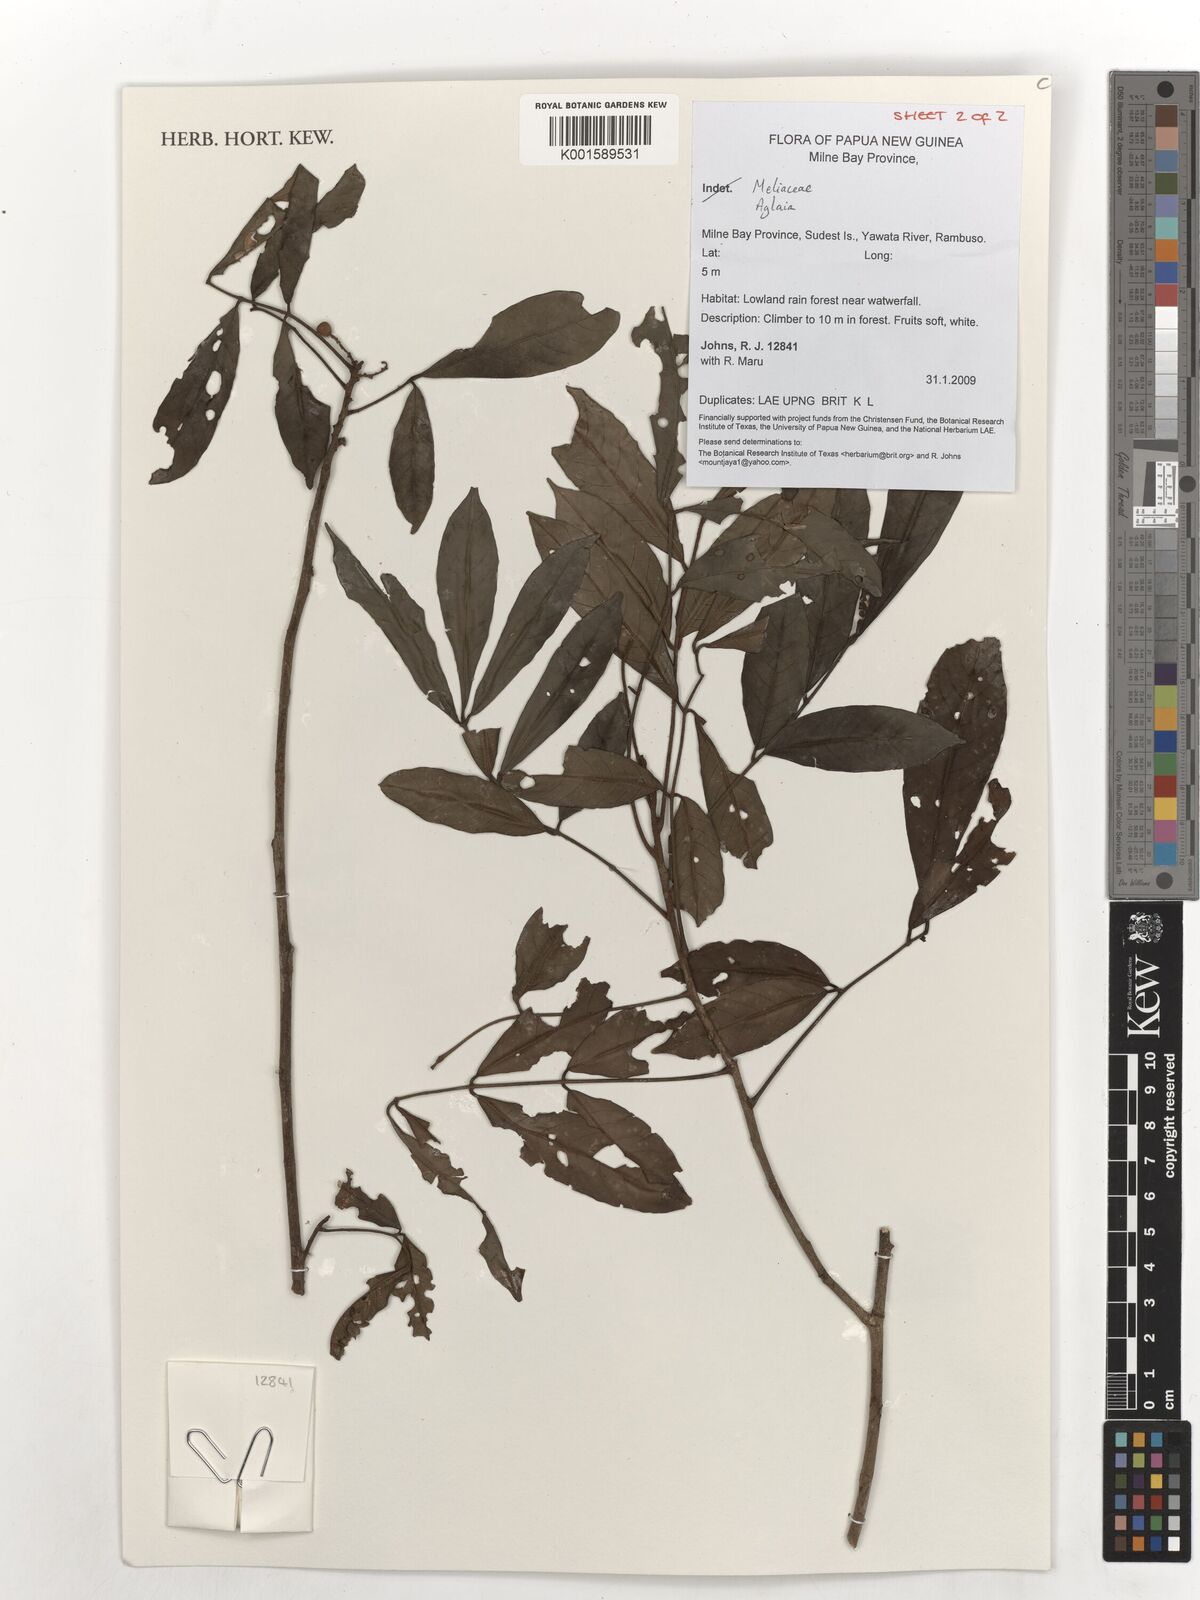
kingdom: Plantae
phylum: Tracheophyta
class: Magnoliopsida
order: Sapindales
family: Meliaceae
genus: Aglaia
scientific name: Aglaia
